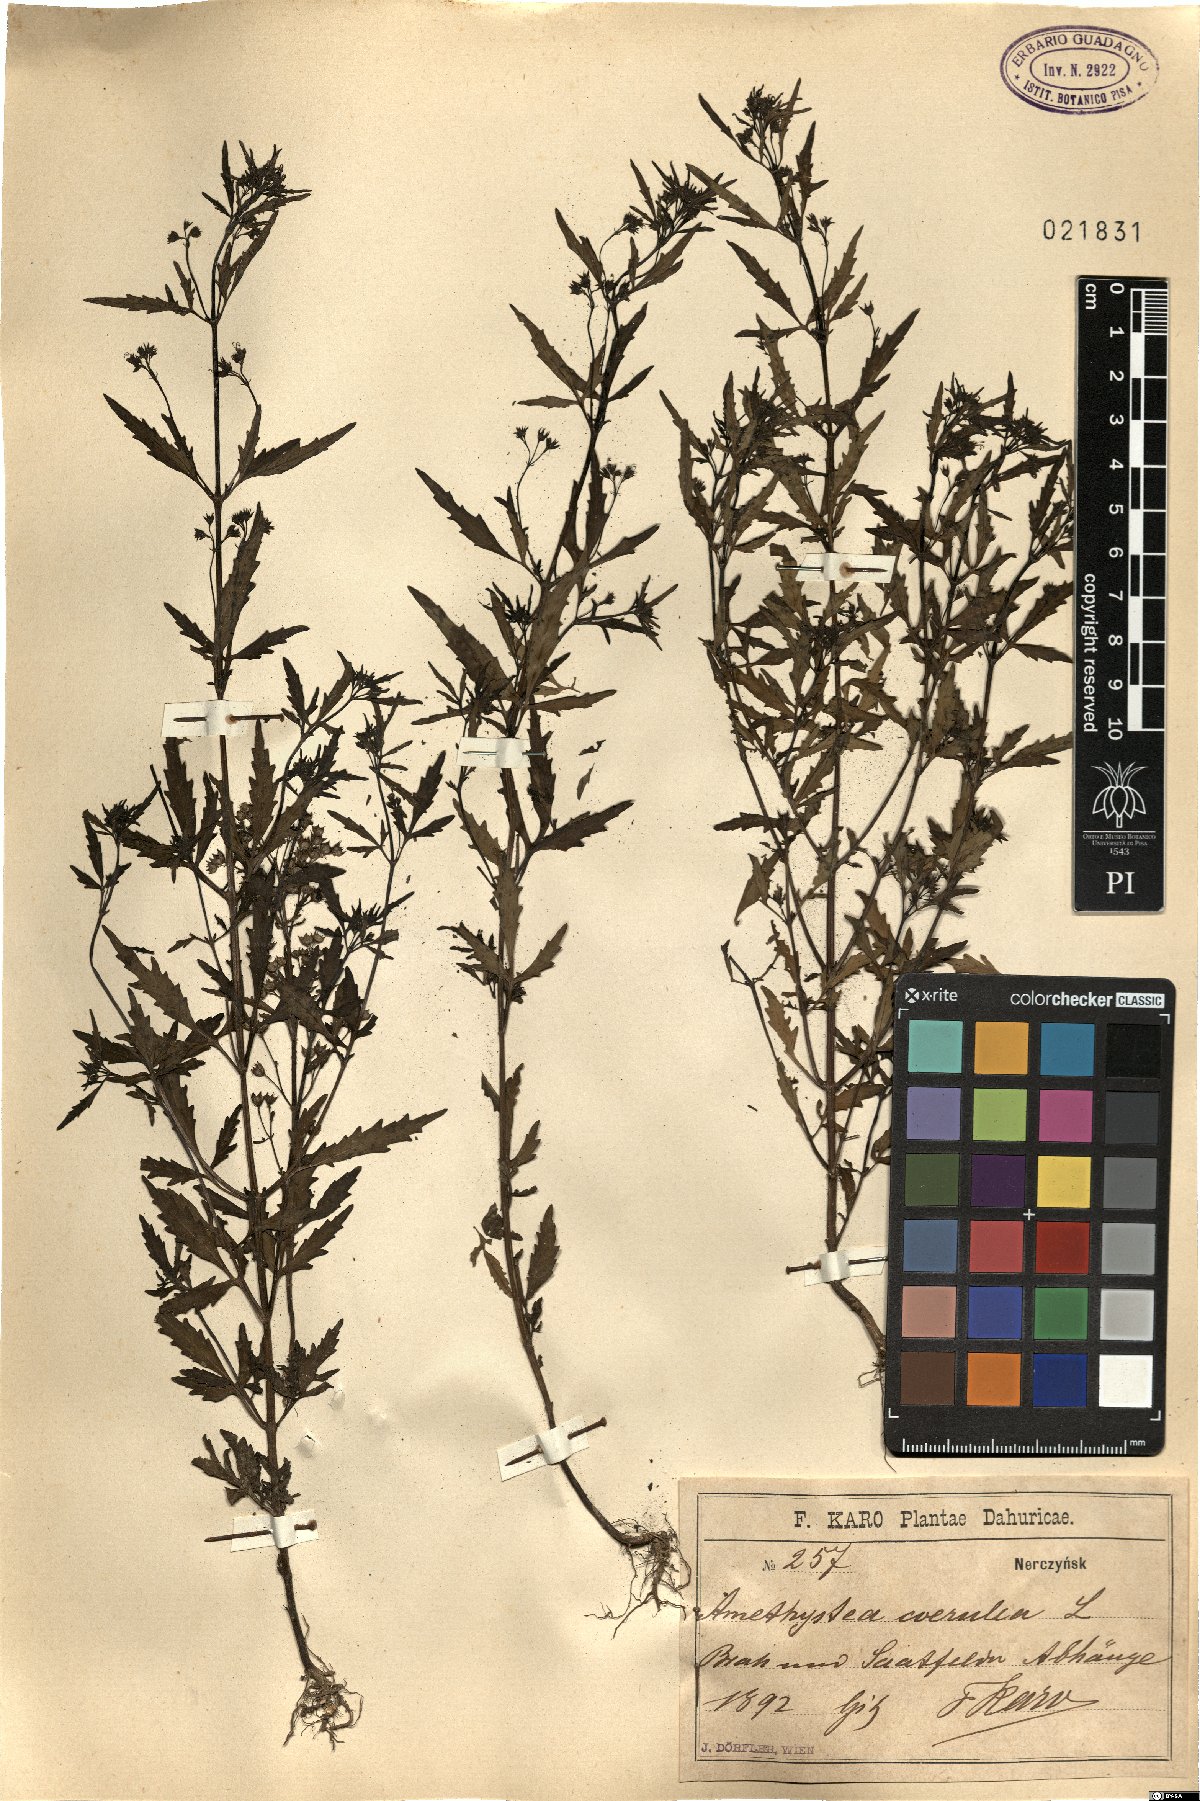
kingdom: Plantae
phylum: Tracheophyta
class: Magnoliopsida
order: Lamiales
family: Lamiaceae
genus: Amethystea
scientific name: Amethystea caerulea
